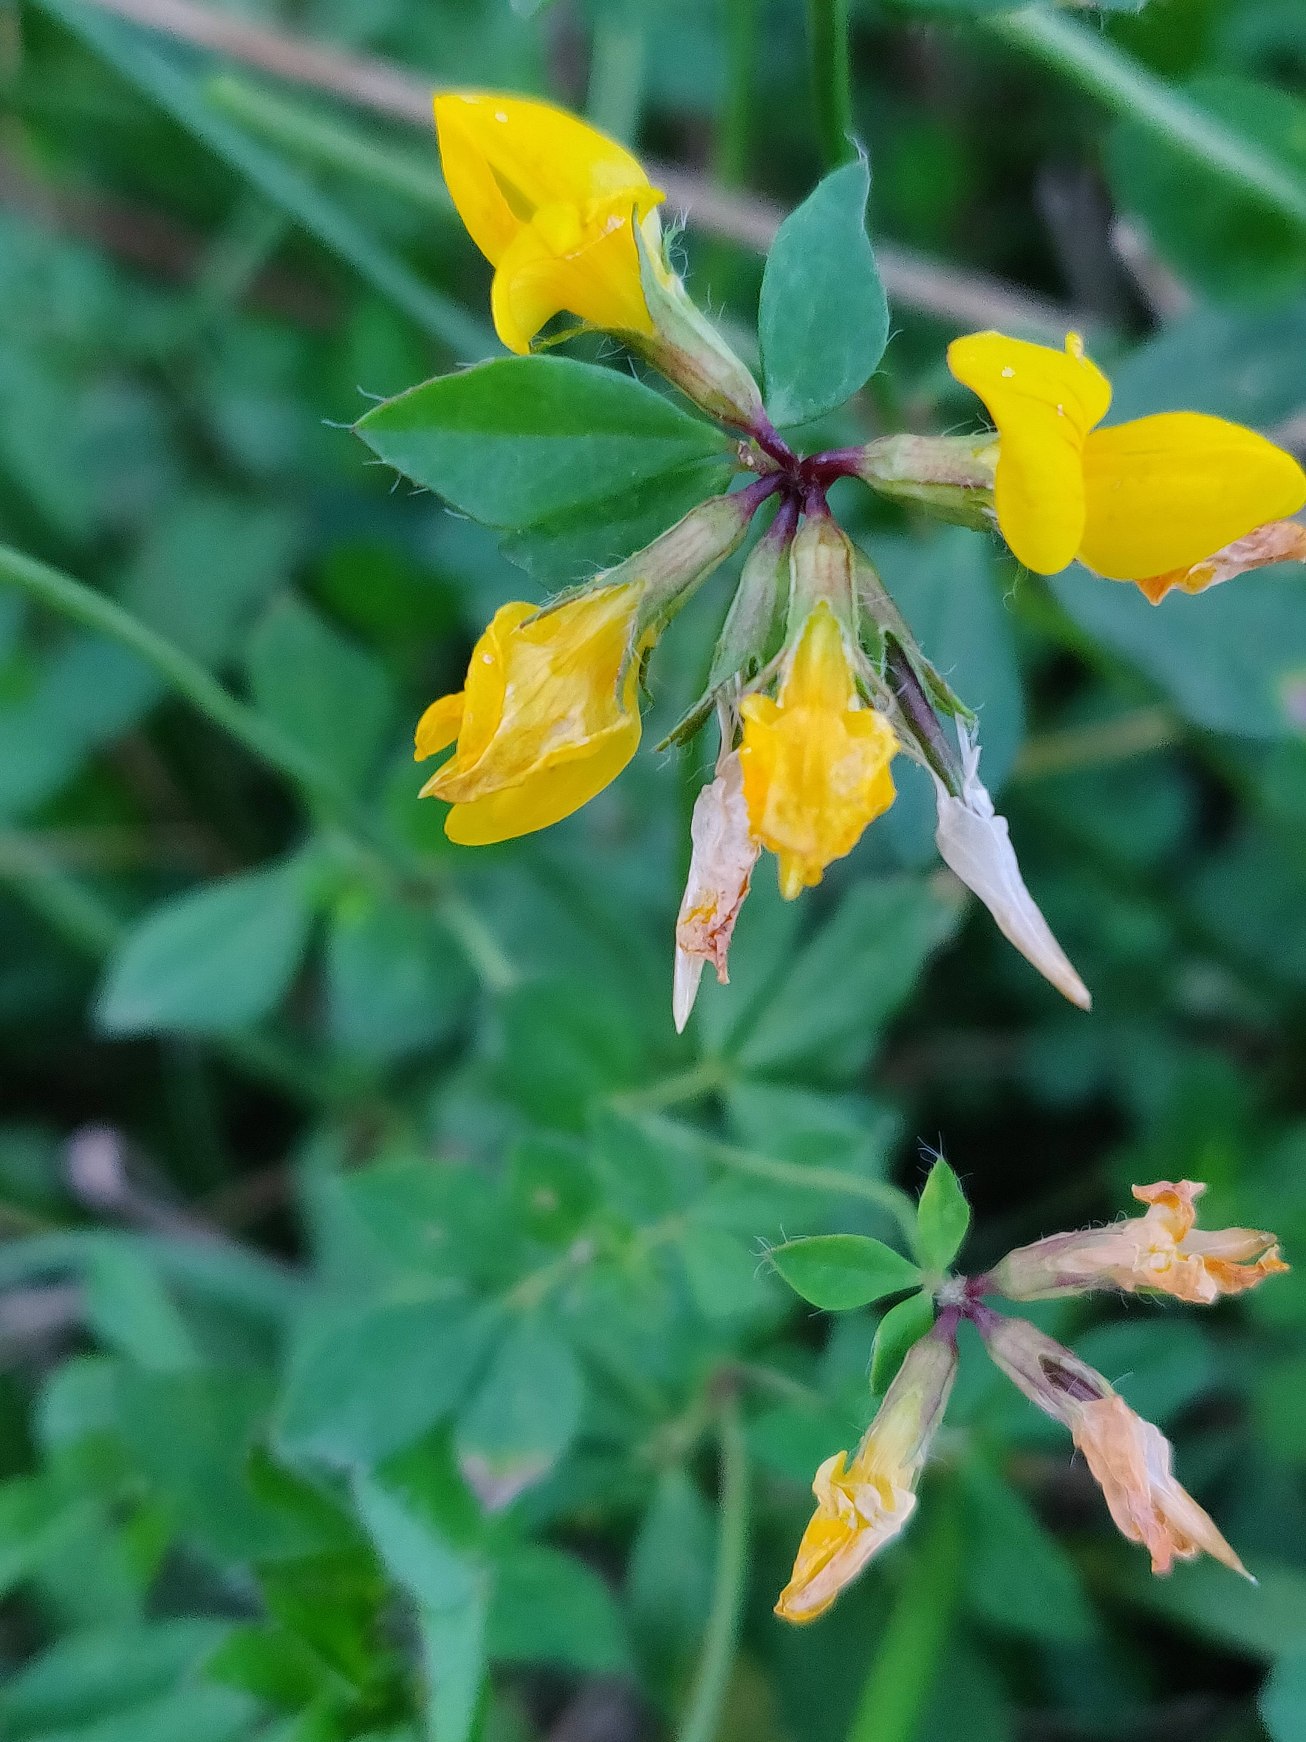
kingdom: Plantae
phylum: Tracheophyta
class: Magnoliopsida
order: Fabales
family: Fabaceae
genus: Lotus
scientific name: Lotus pedunculatus
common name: Sump-kællingetand
